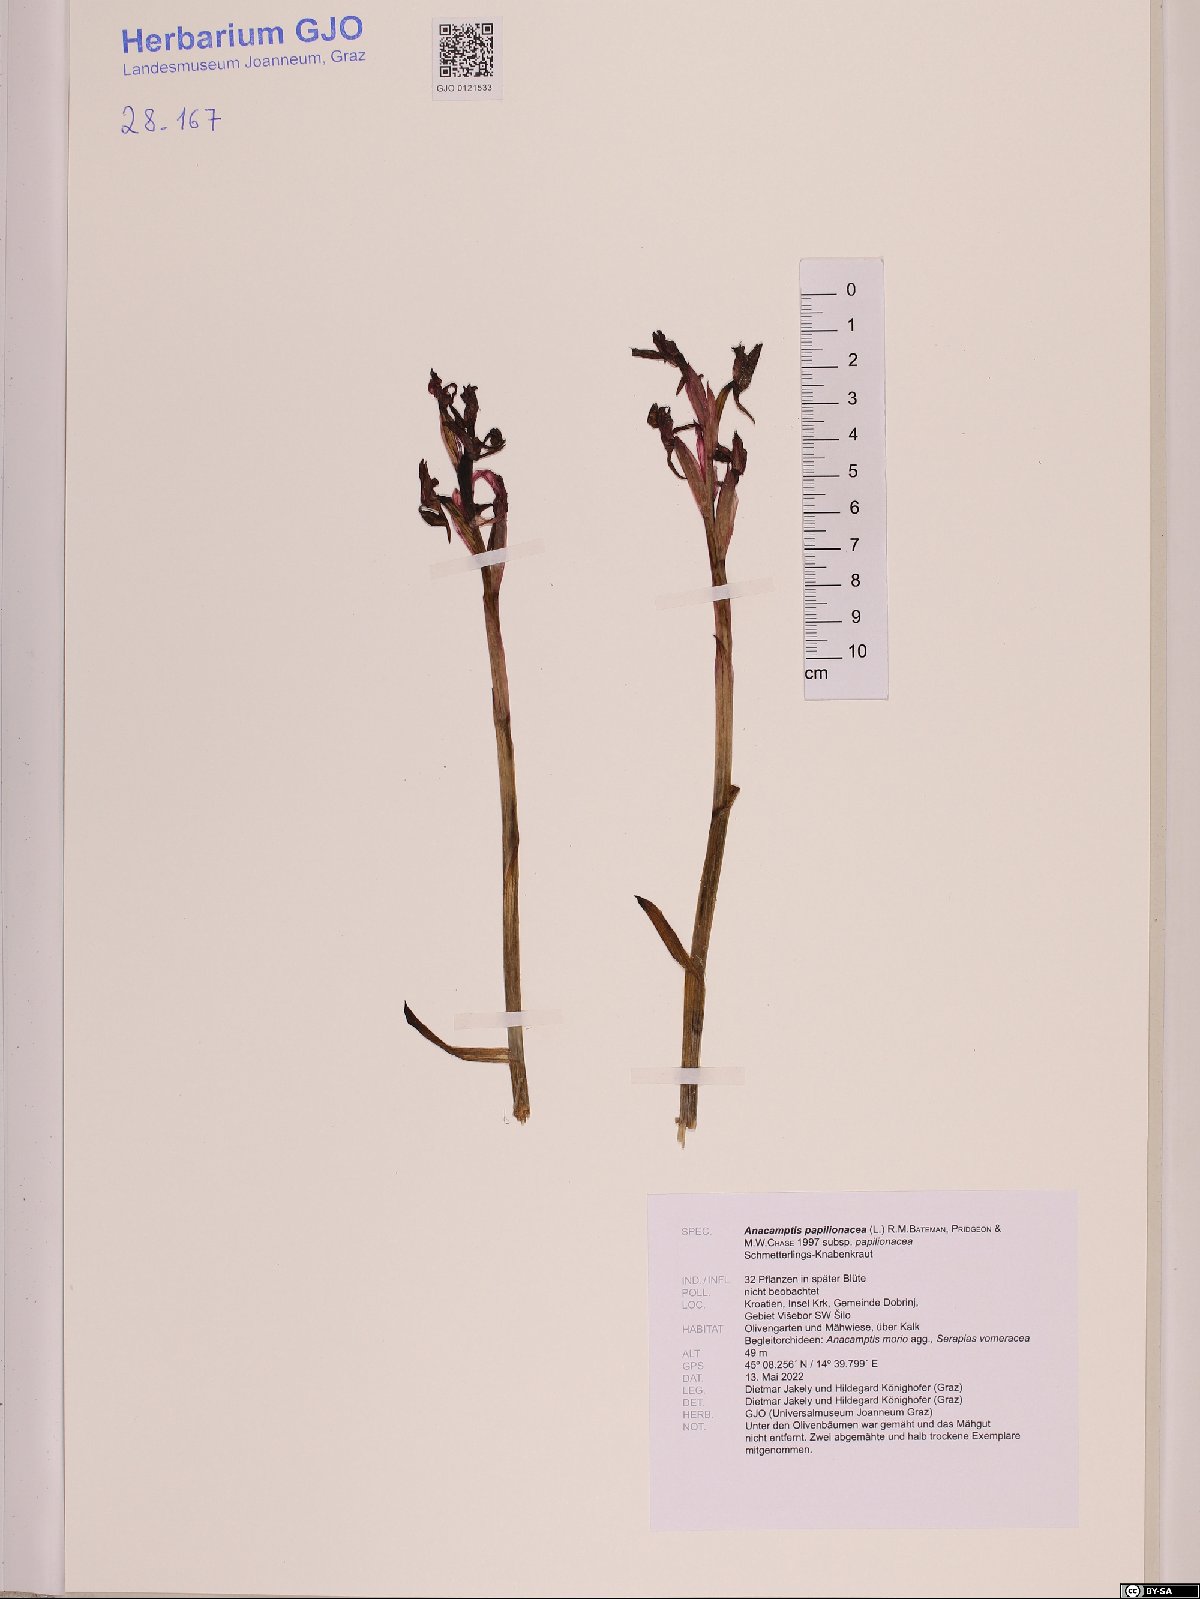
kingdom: Plantae
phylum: Tracheophyta
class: Liliopsida
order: Asparagales
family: Orchidaceae
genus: Anacamptis
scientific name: Anacamptis papilionacea
